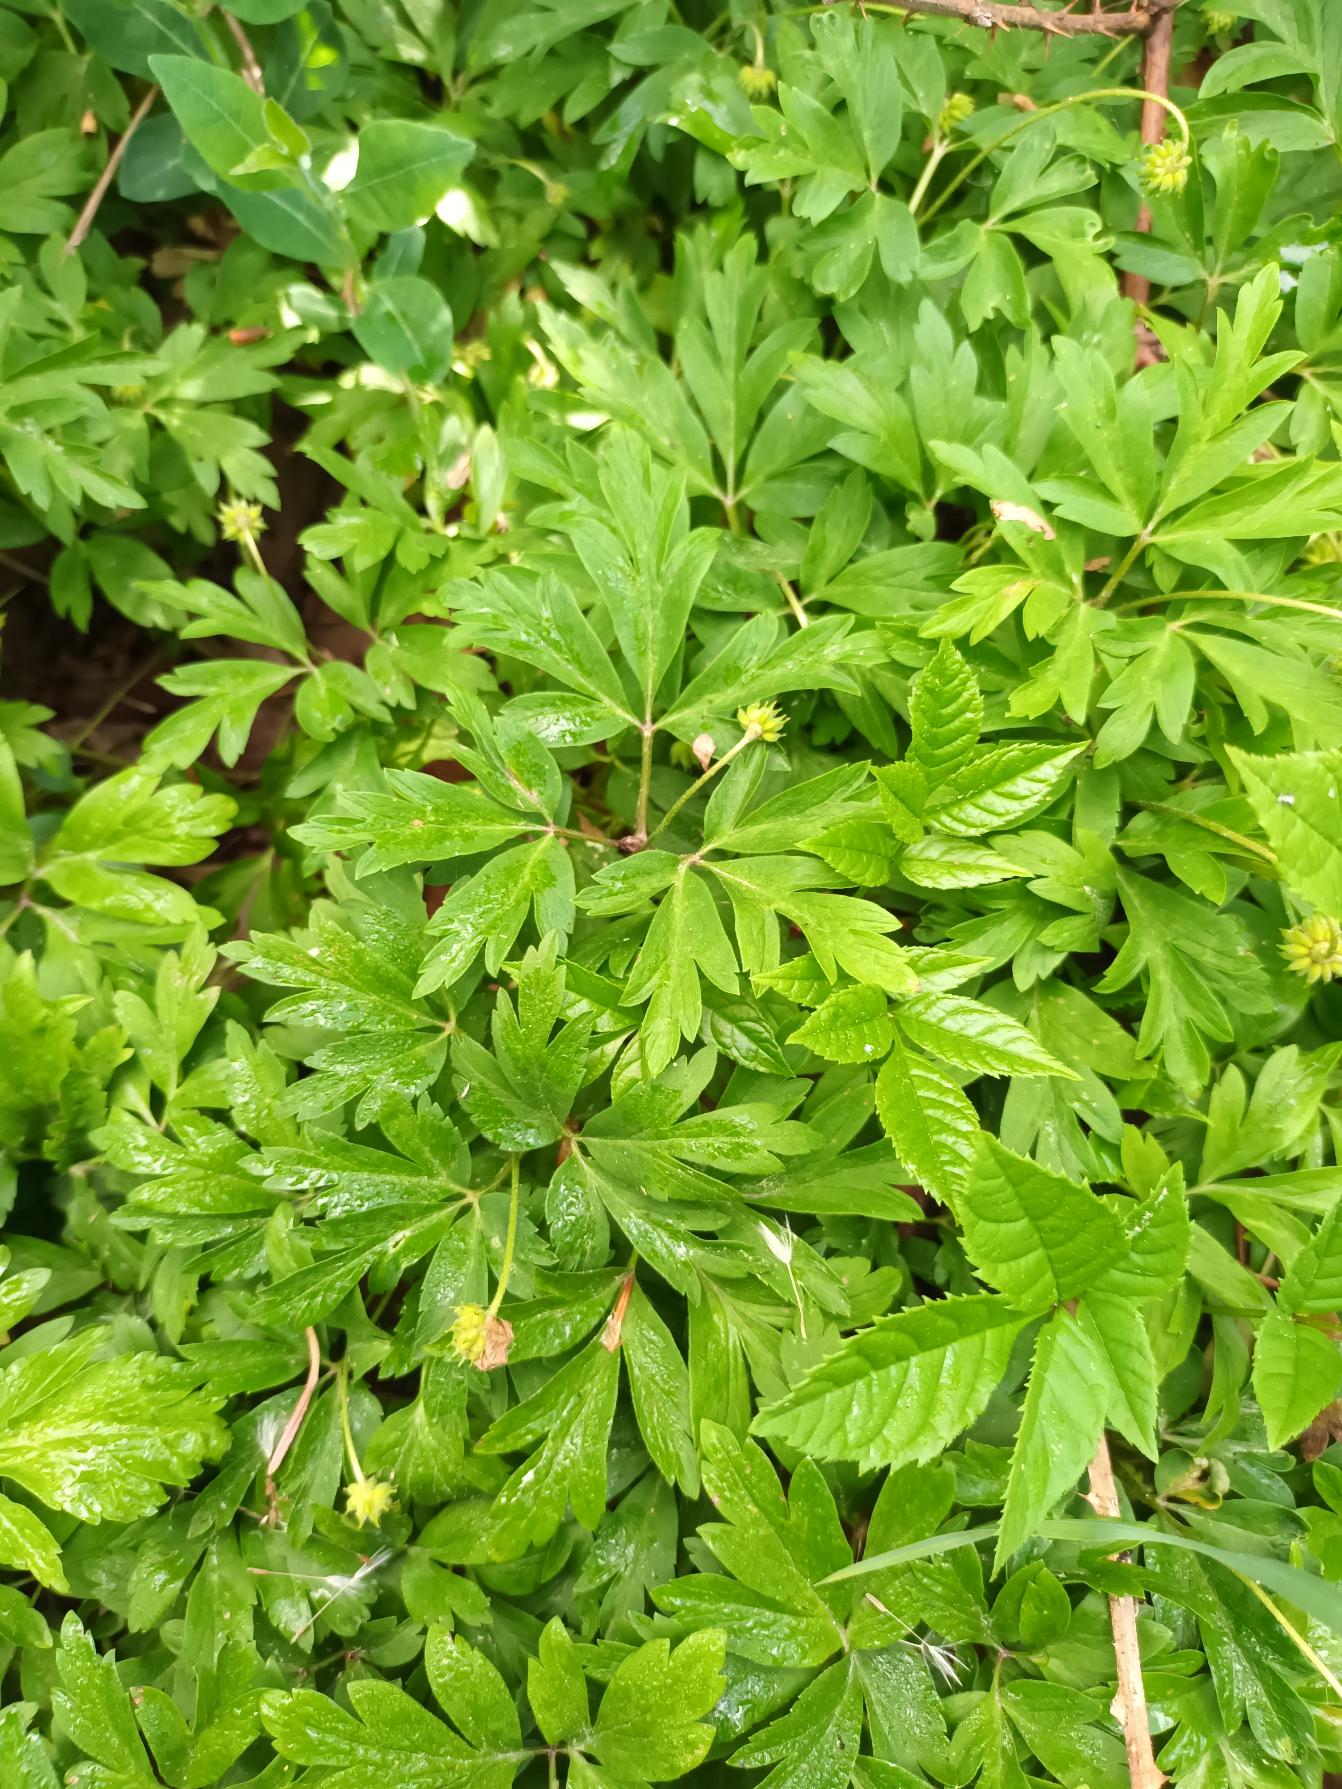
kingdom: Plantae
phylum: Tracheophyta
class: Magnoliopsida
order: Ranunculales
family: Ranunculaceae
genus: Anemone
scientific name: Anemone nemorosa
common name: Hvid anemone
